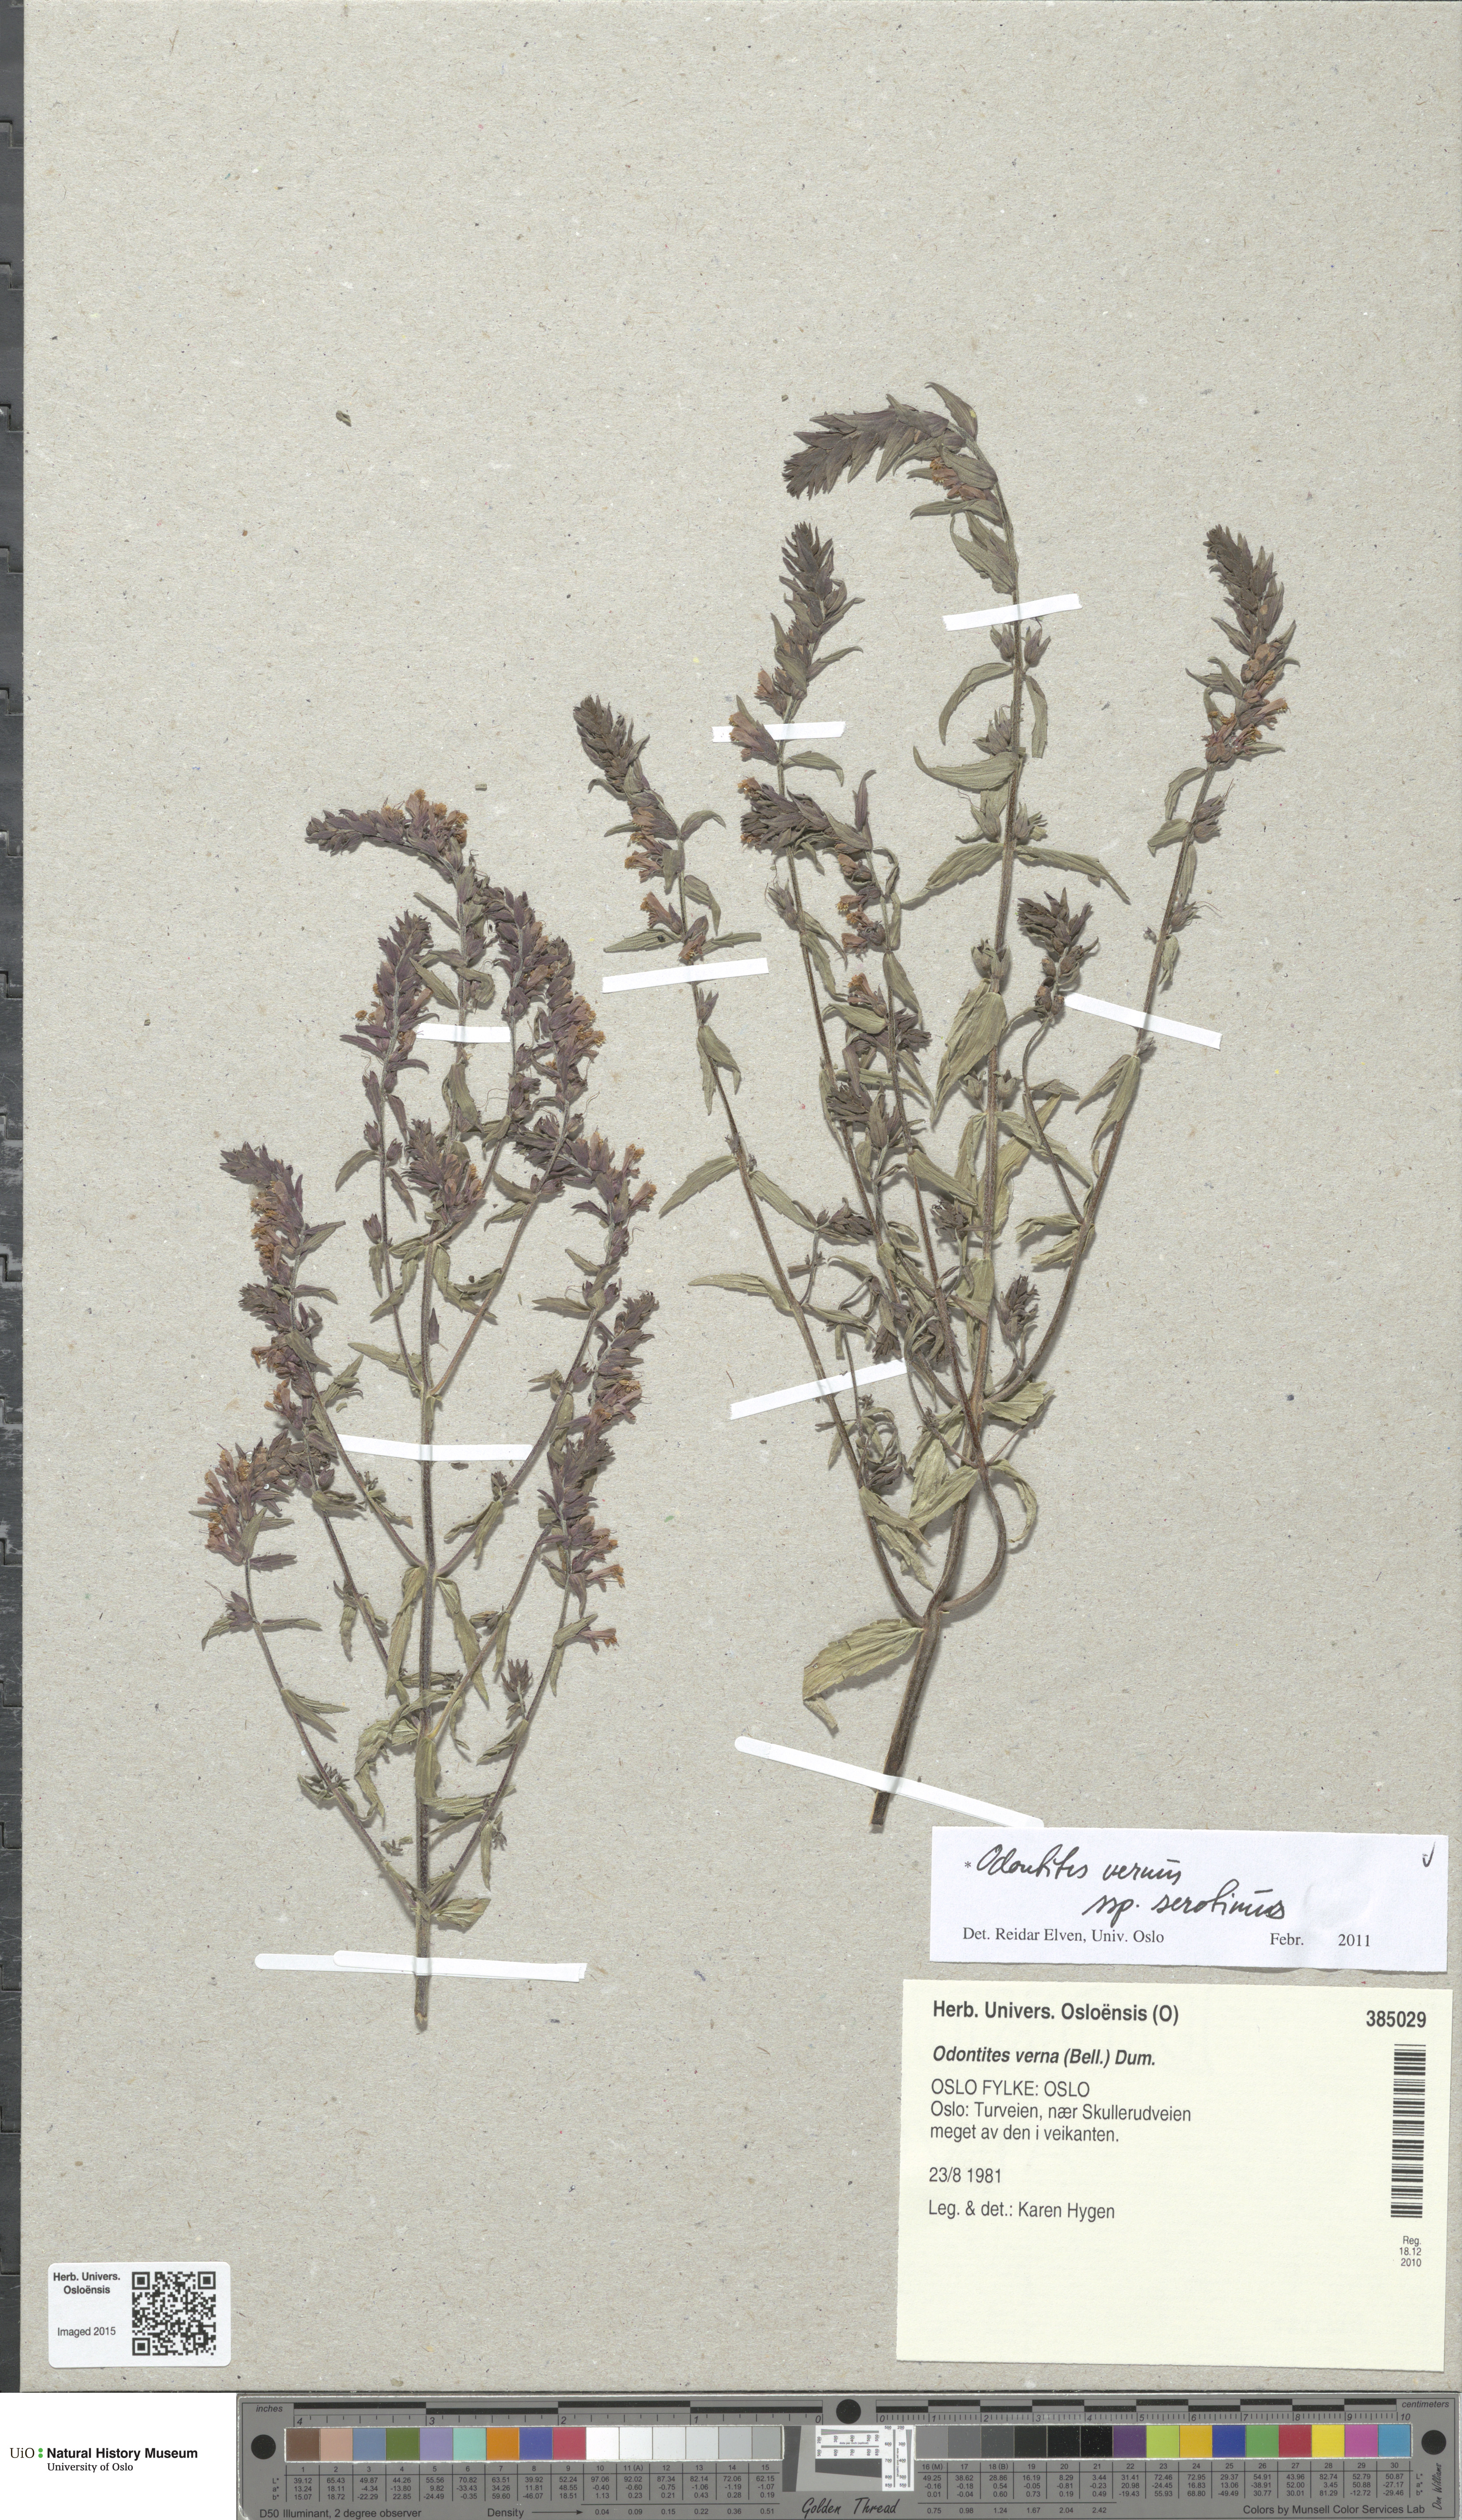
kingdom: Plantae
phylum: Tracheophyta
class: Magnoliopsida
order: Lamiales
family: Orobanchaceae
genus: Odontites
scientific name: Odontites vulgaris
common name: Broomrape
